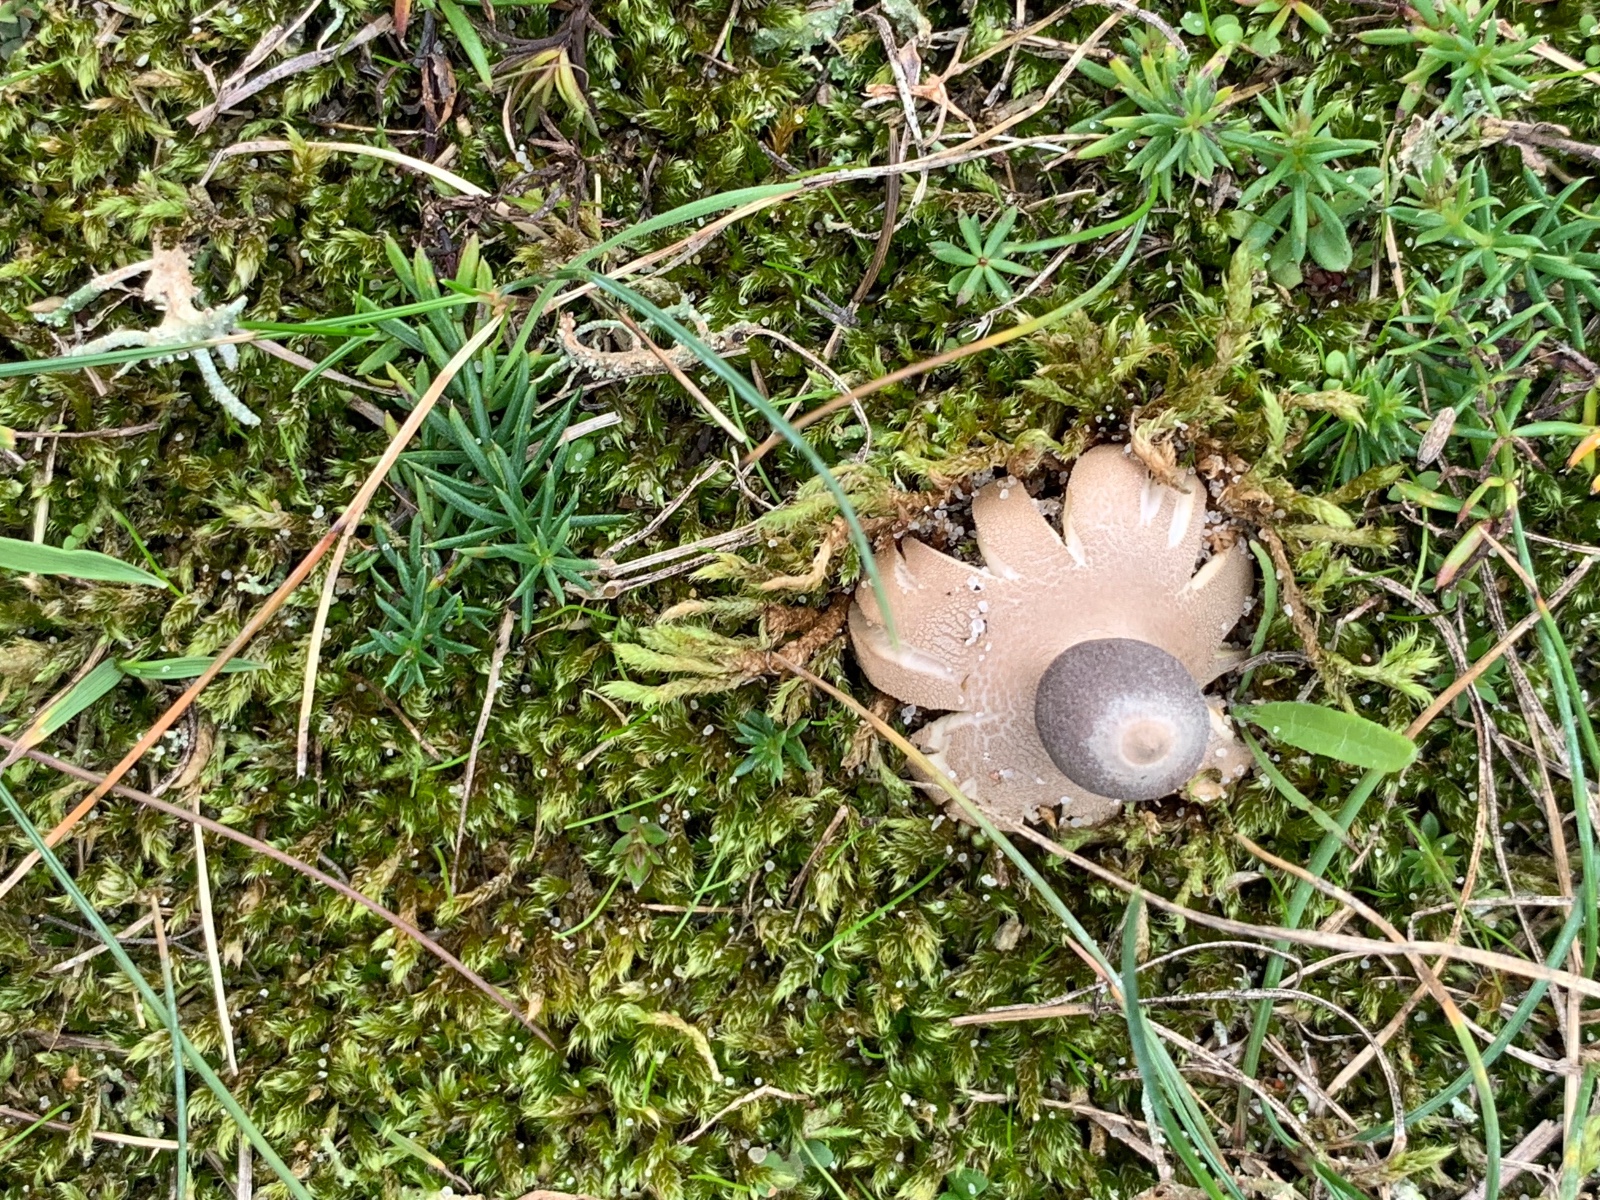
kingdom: Fungi
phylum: Basidiomycota
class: Agaricomycetes
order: Geastrales
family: Geastraceae
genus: Geastrum
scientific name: Geastrum striatum
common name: dværg-stjernebold
